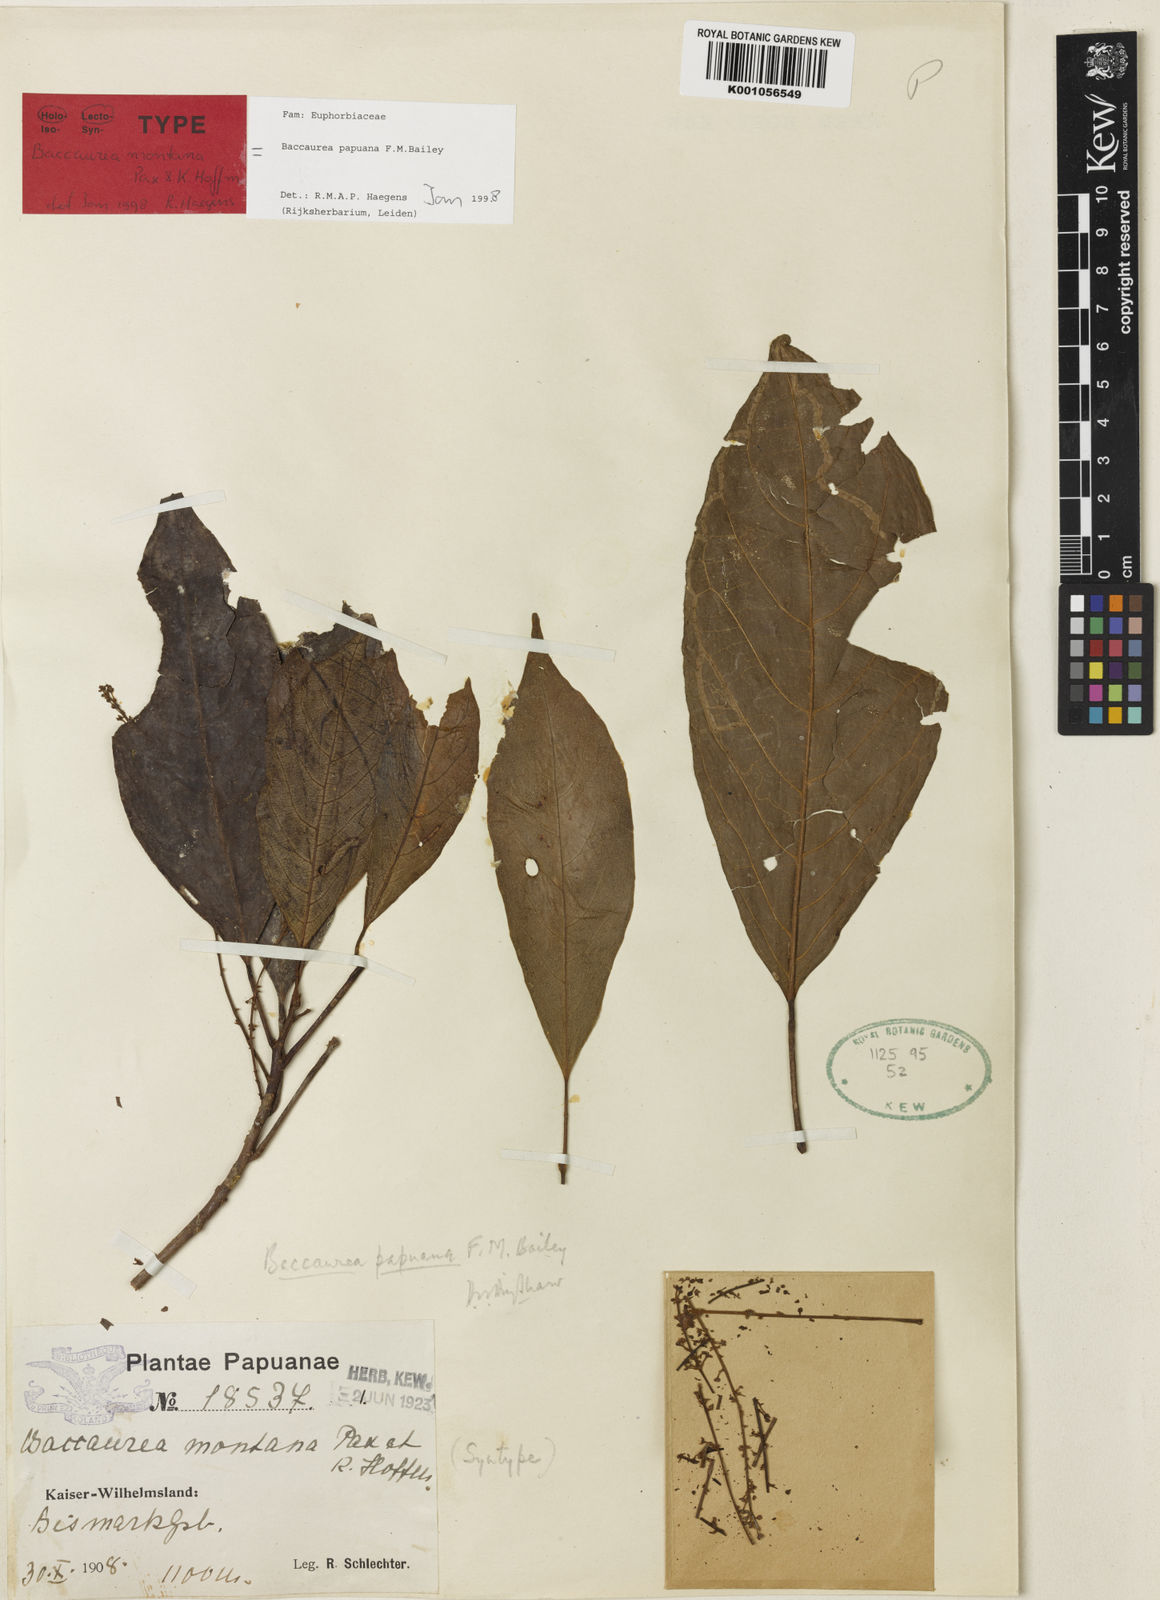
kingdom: Plantae
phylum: Tracheophyta
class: Magnoliopsida
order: Malpighiales
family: Phyllanthaceae
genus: Baccaurea
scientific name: Baccaurea papuana
